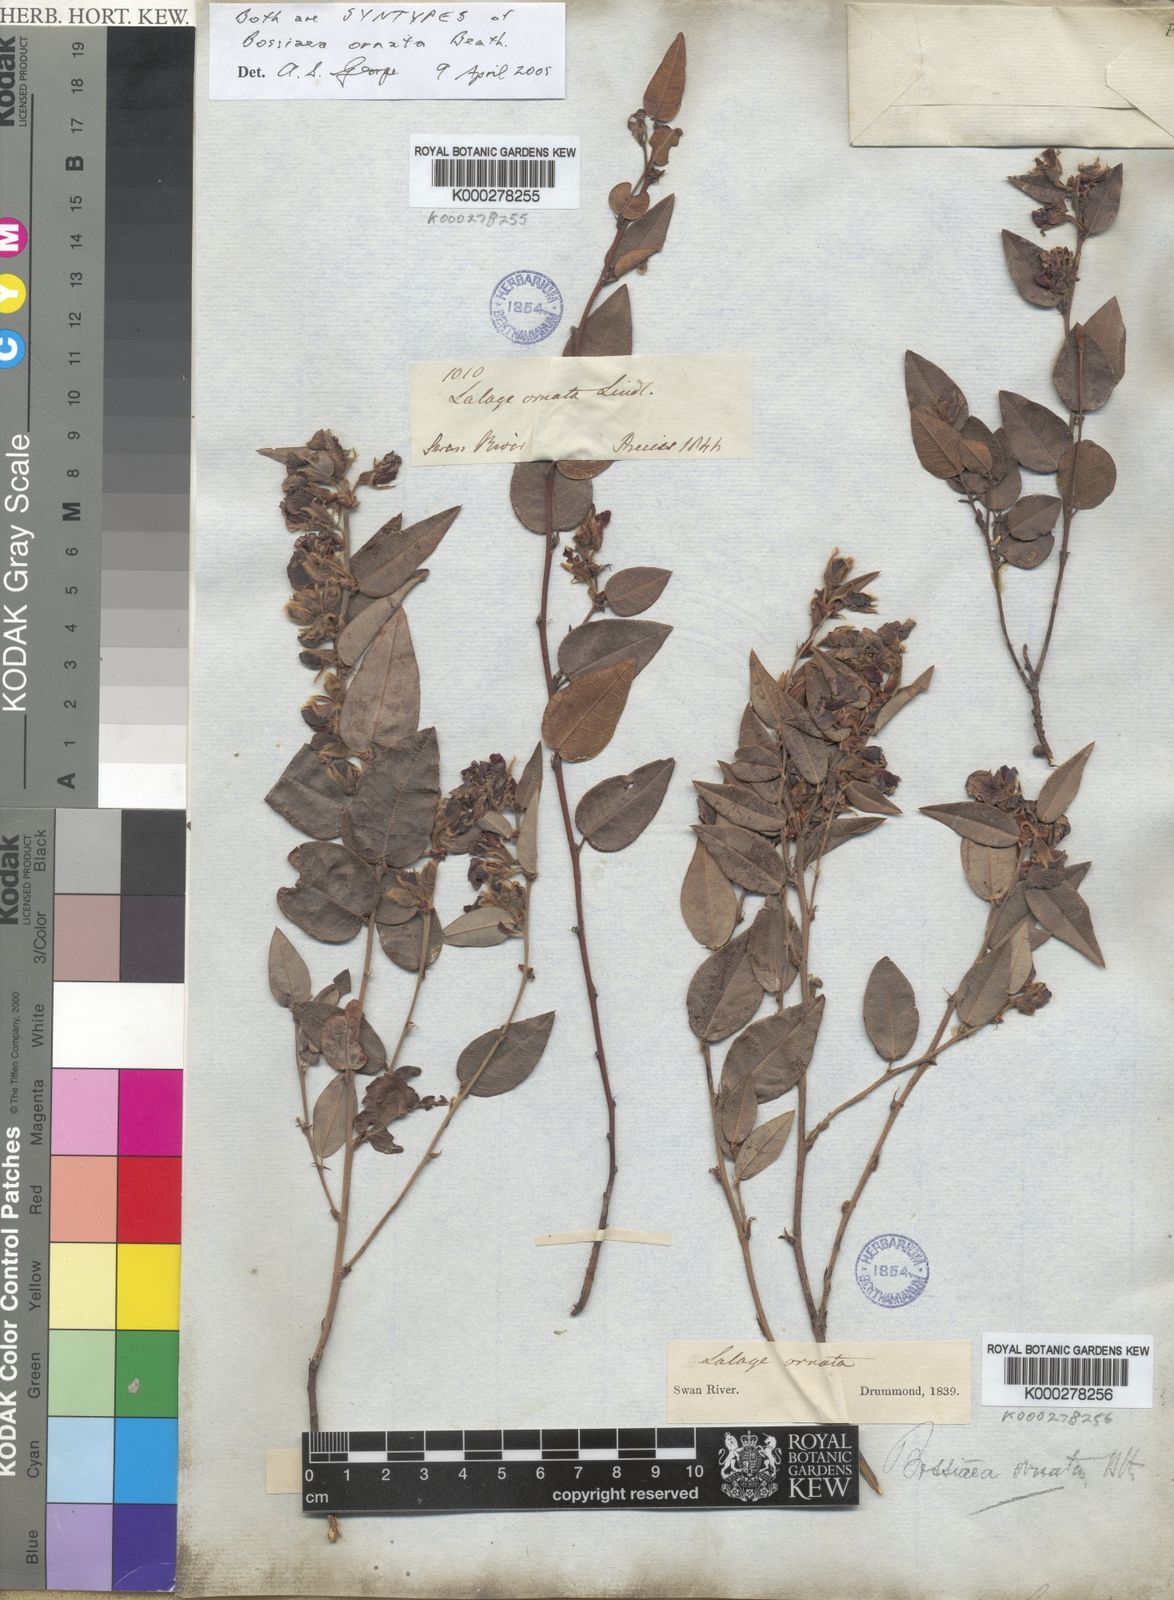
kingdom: Plantae
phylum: Tracheophyta
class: Magnoliopsida
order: Fabales
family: Fabaceae
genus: Bossiaea
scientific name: Bossiaea ornata
